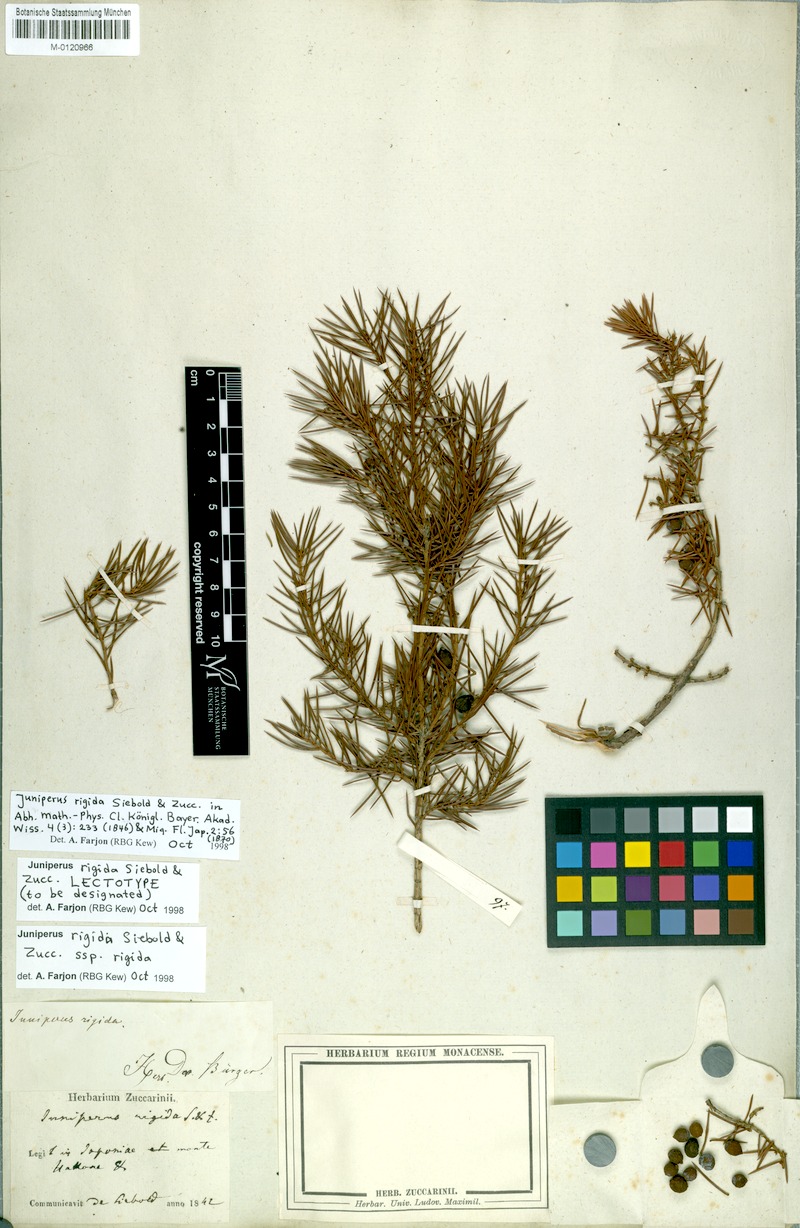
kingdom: Plantae
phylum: Tracheophyta
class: Pinopsida
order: Pinales
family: Cupressaceae
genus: Juniperus
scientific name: Juniperus rigida
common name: Needle juniper
